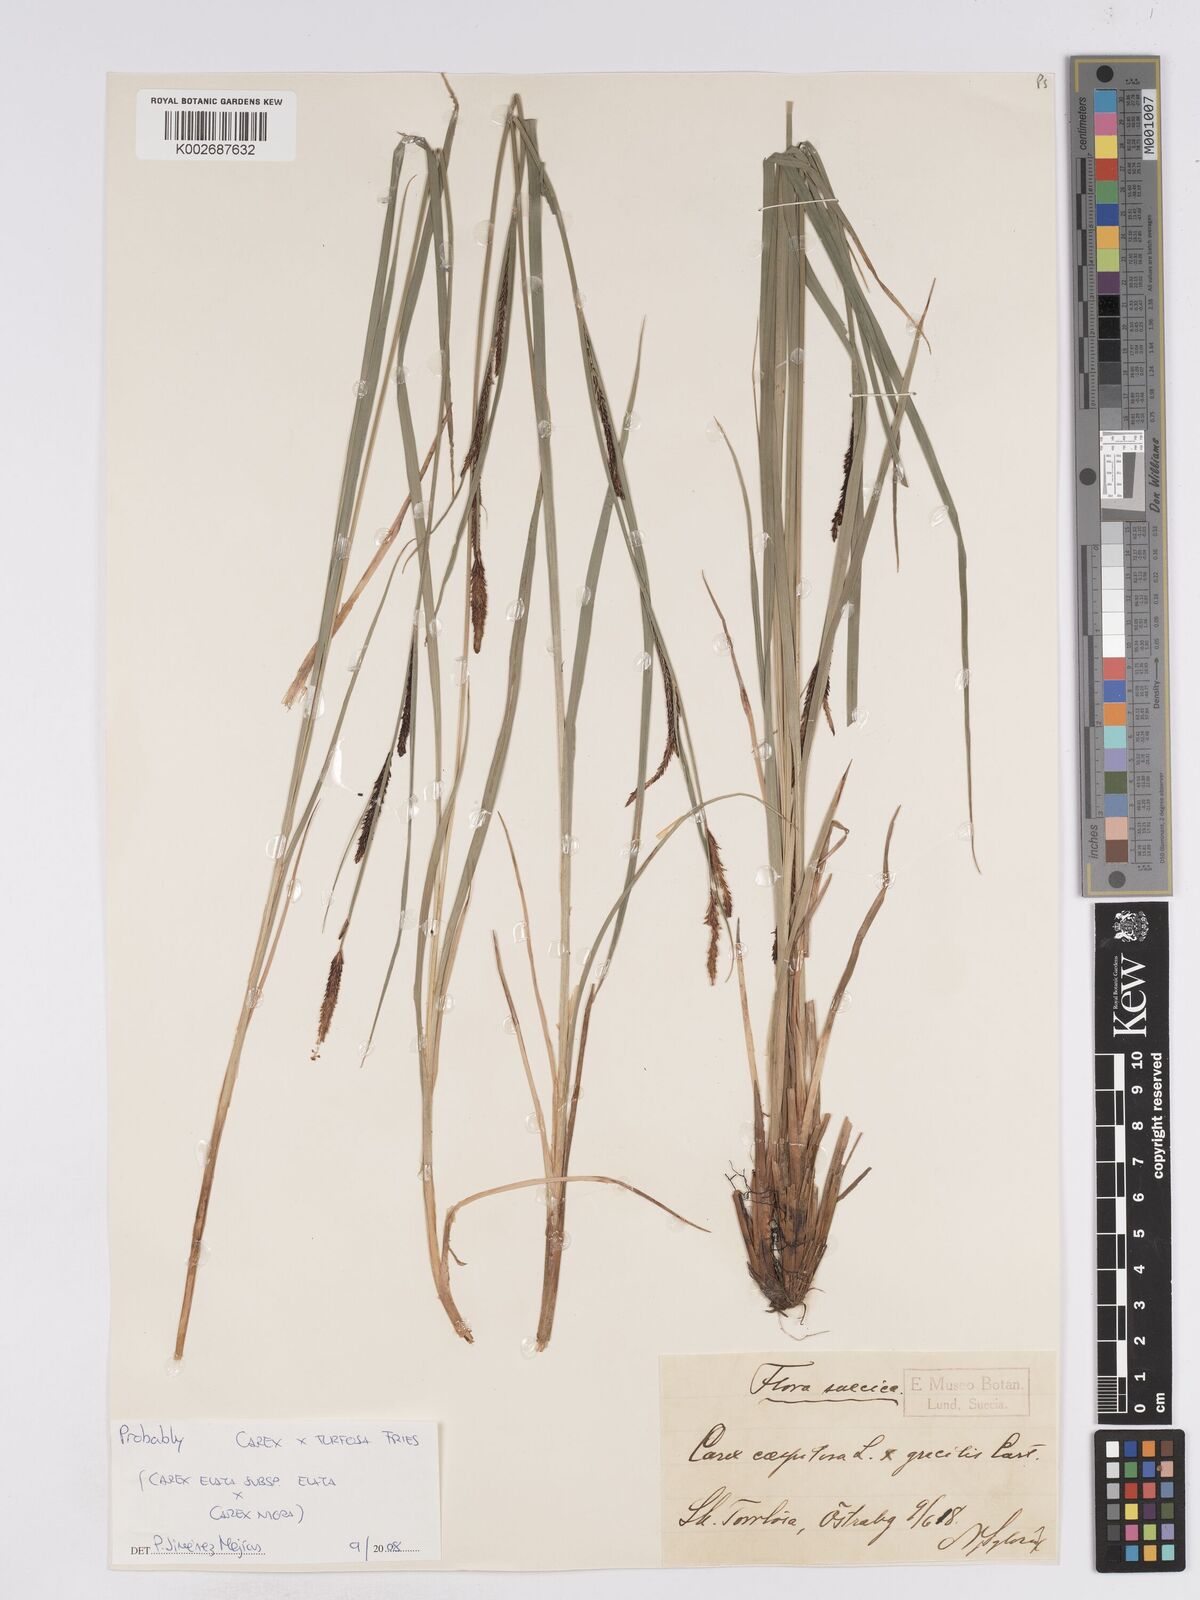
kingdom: Plantae
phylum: Tracheophyta
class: Liliopsida
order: Poales
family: Cyperaceae
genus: Carex
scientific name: Carex nigra
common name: Common sedge
